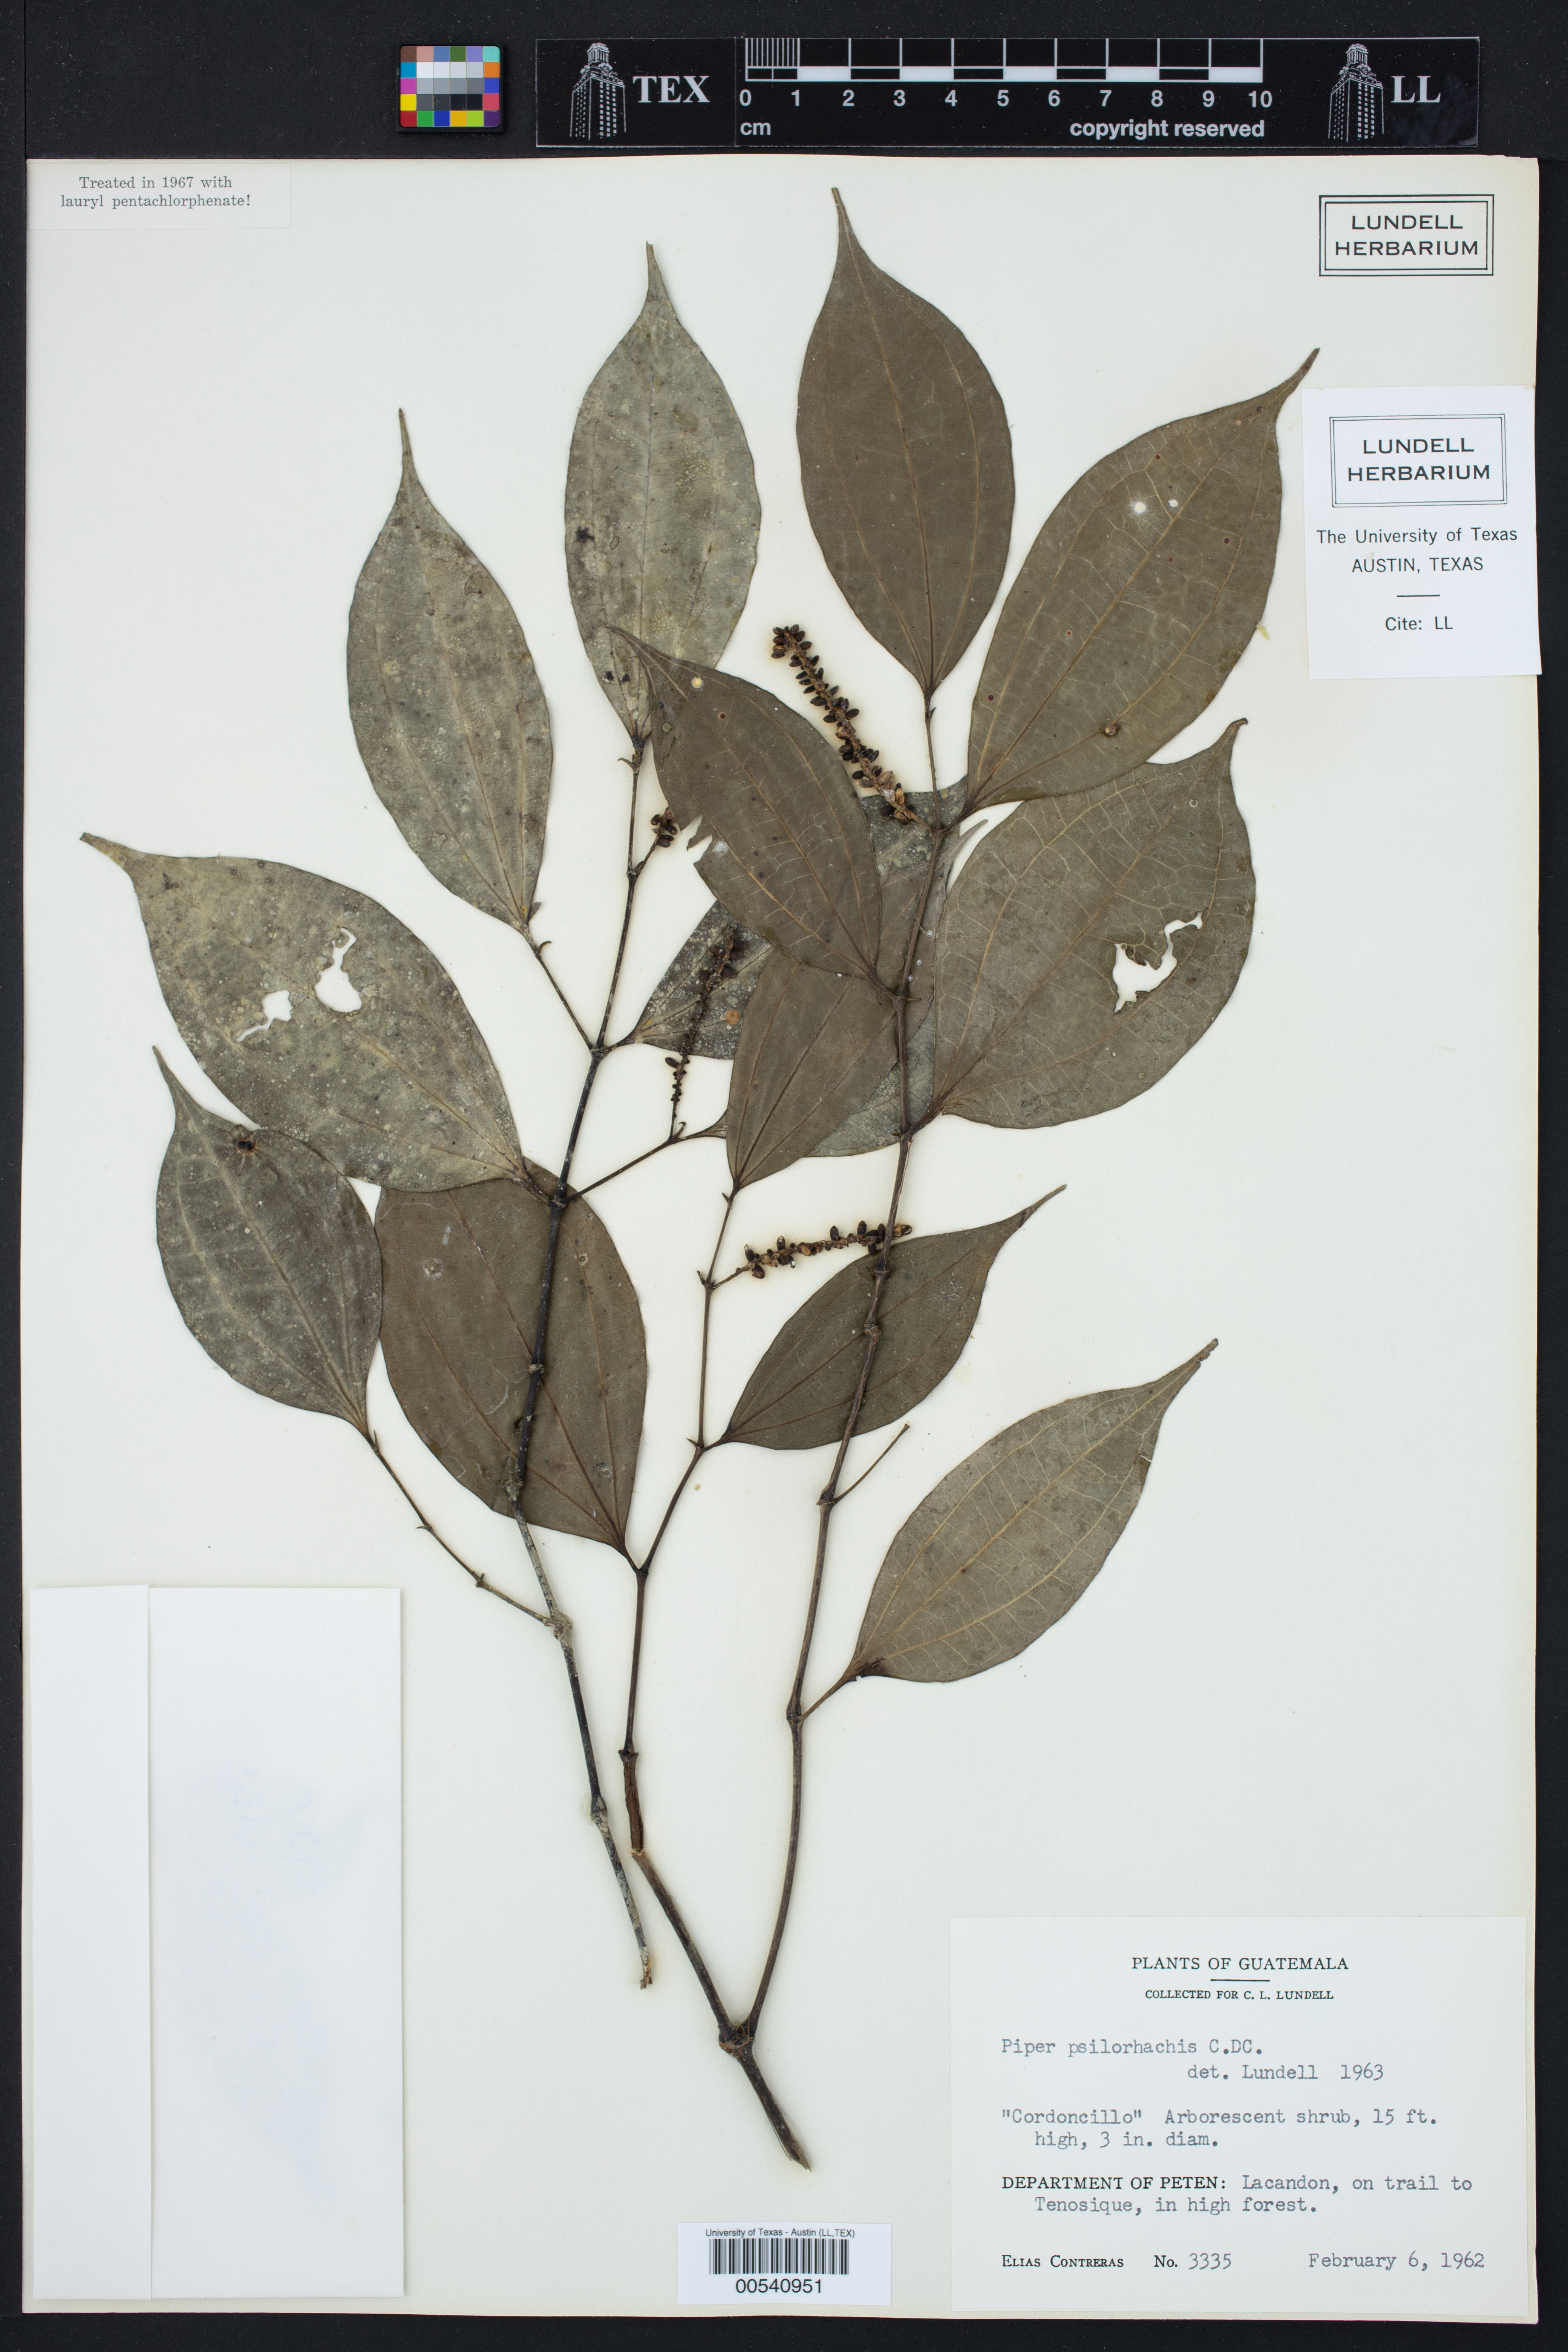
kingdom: Plantae
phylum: Tracheophyta
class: Magnoliopsida
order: Piperales
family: Piperaceae
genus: Piper
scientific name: Piper psilorhachis
